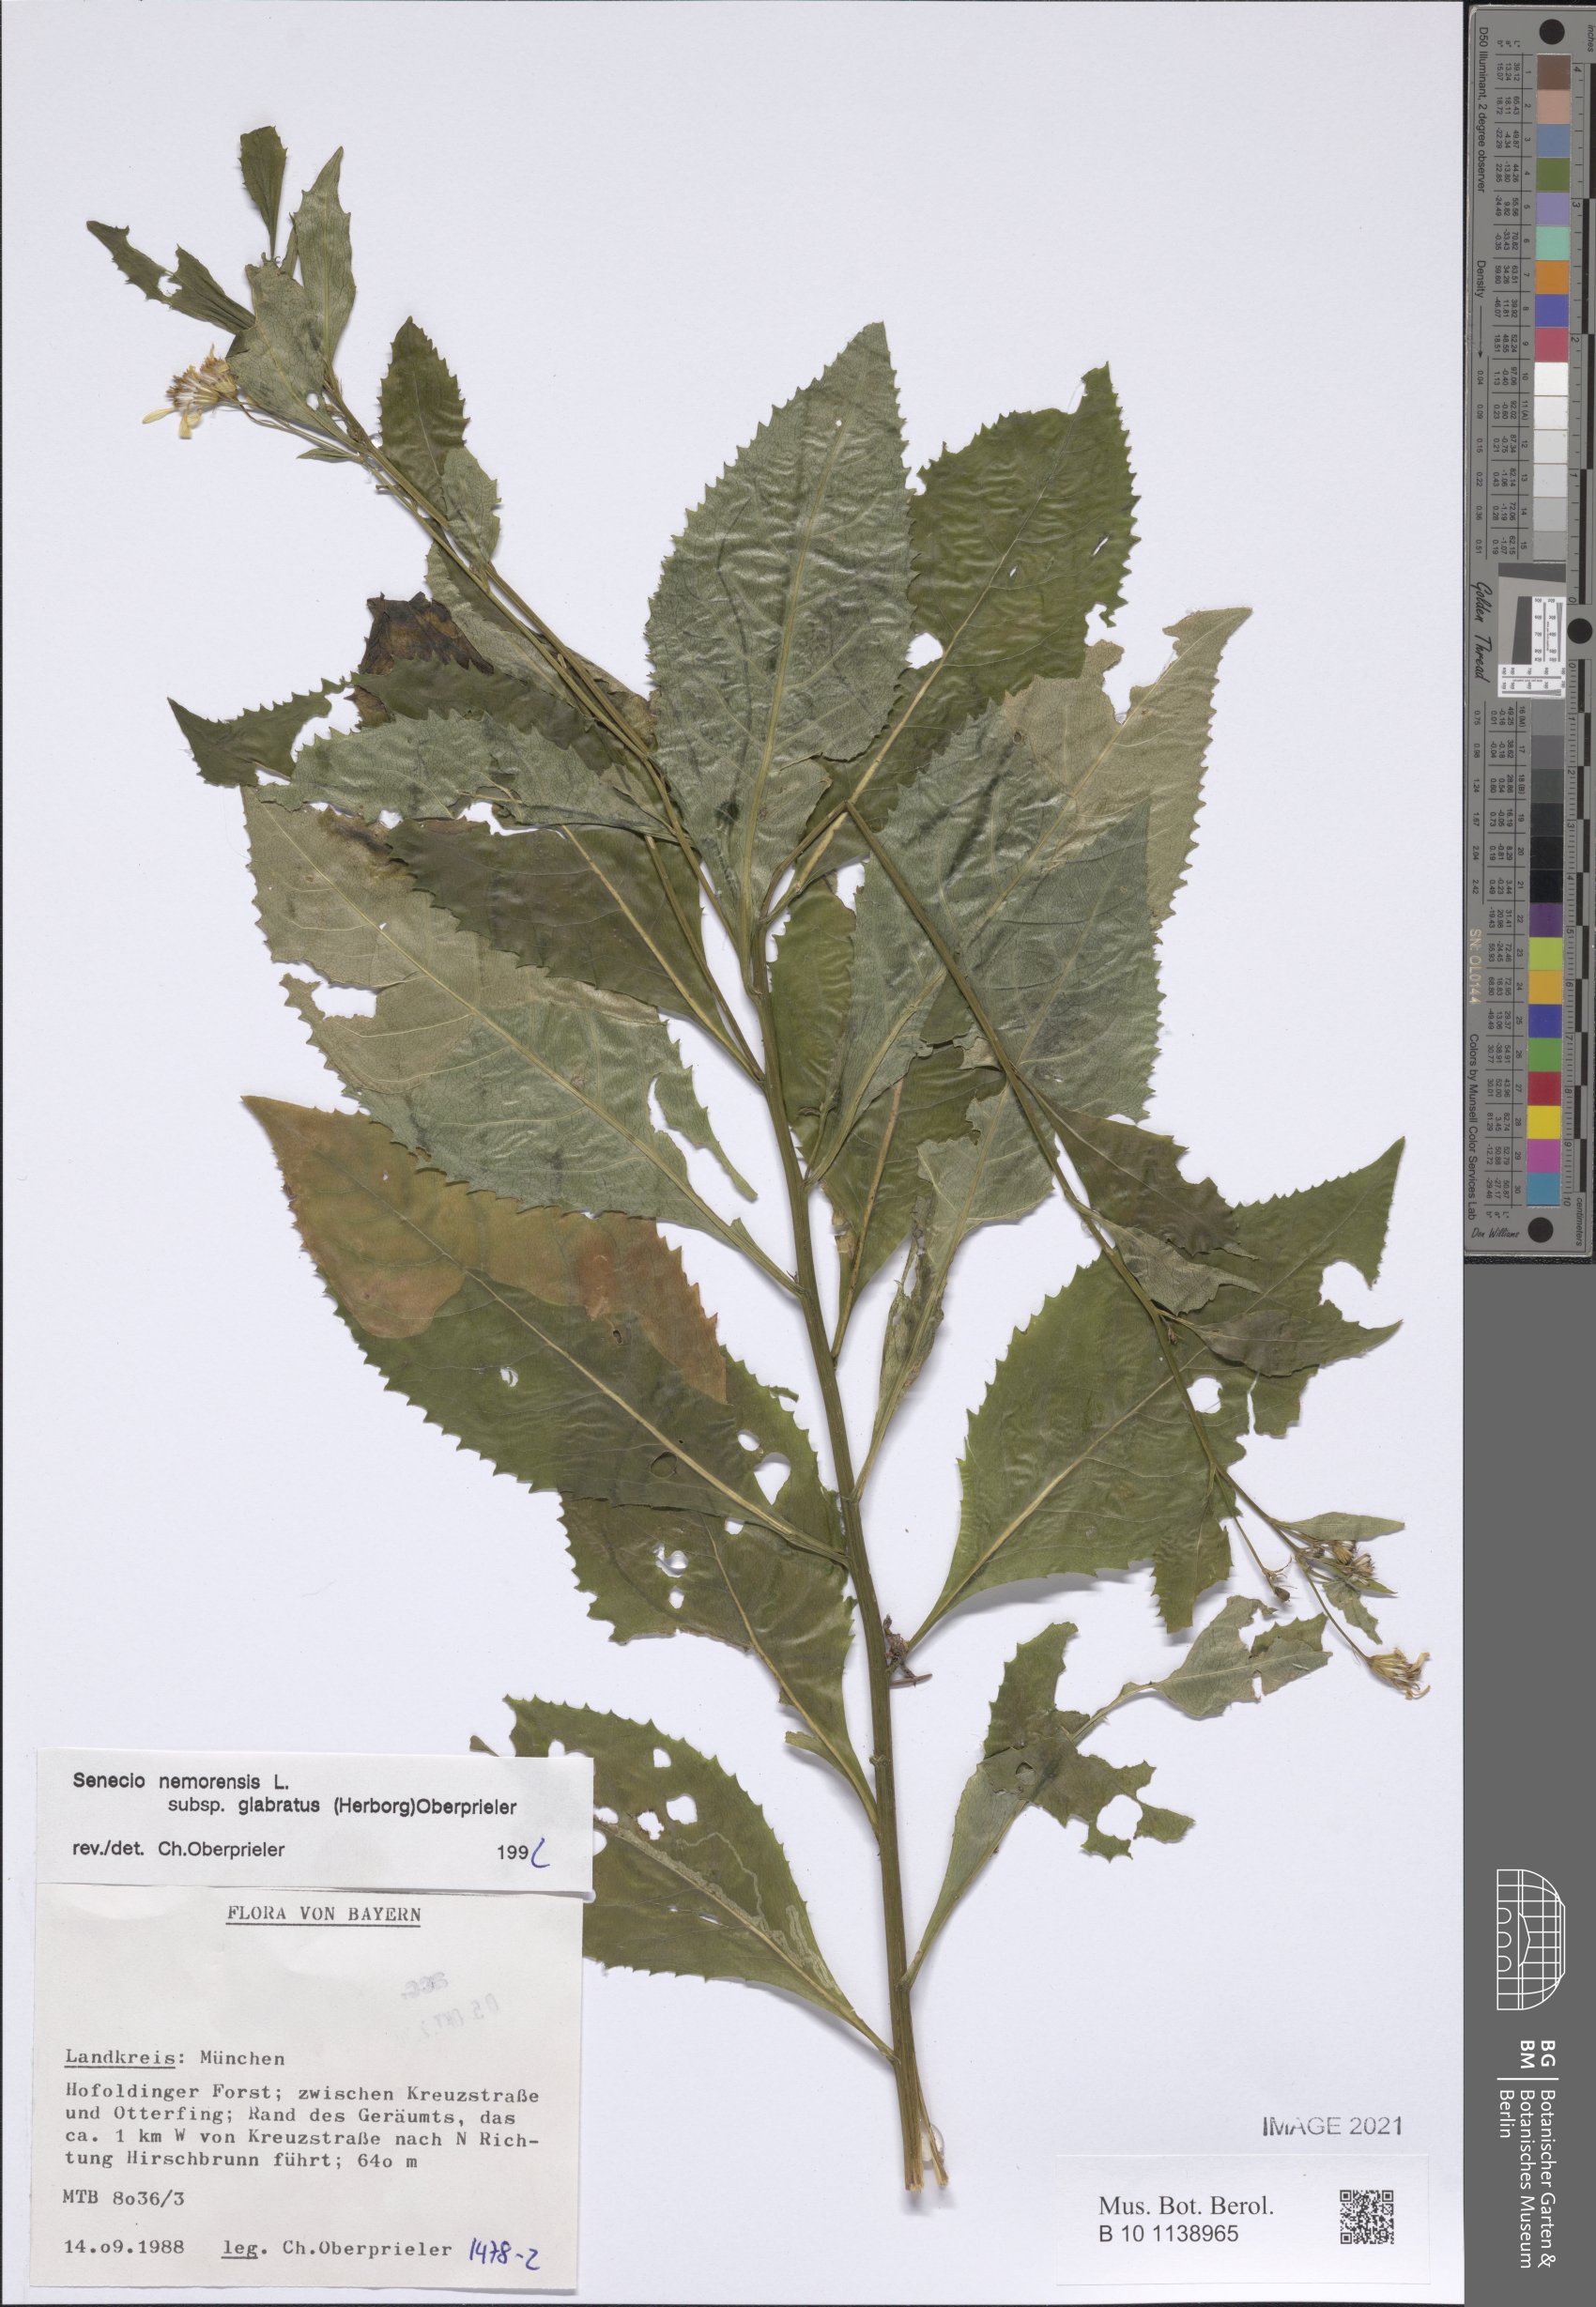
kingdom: Plantae
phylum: Tracheophyta
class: Magnoliopsida
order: Asterales
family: Asteraceae
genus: Senecio
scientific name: Senecio germanicus
